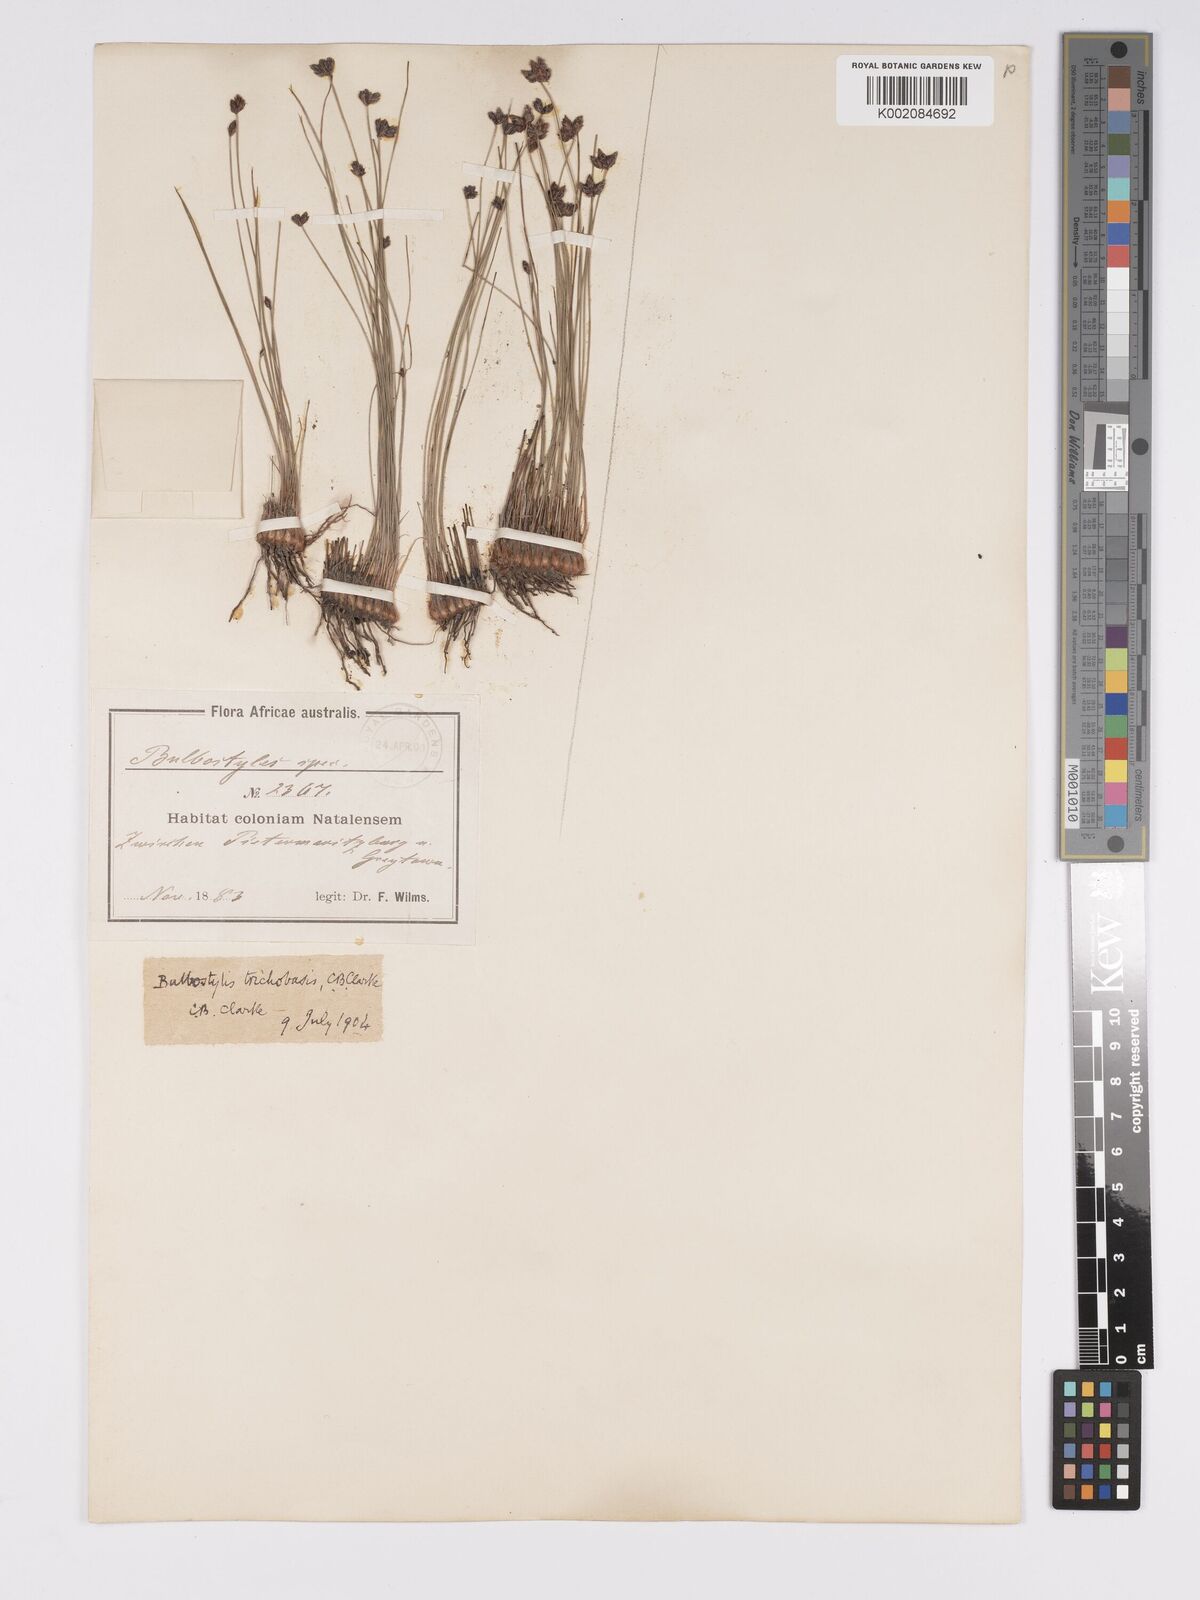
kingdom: Plantae
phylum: Tracheophyta
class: Liliopsida
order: Poales
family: Cyperaceae
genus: Bulbostylis
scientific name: Bulbostylis trichobasis
